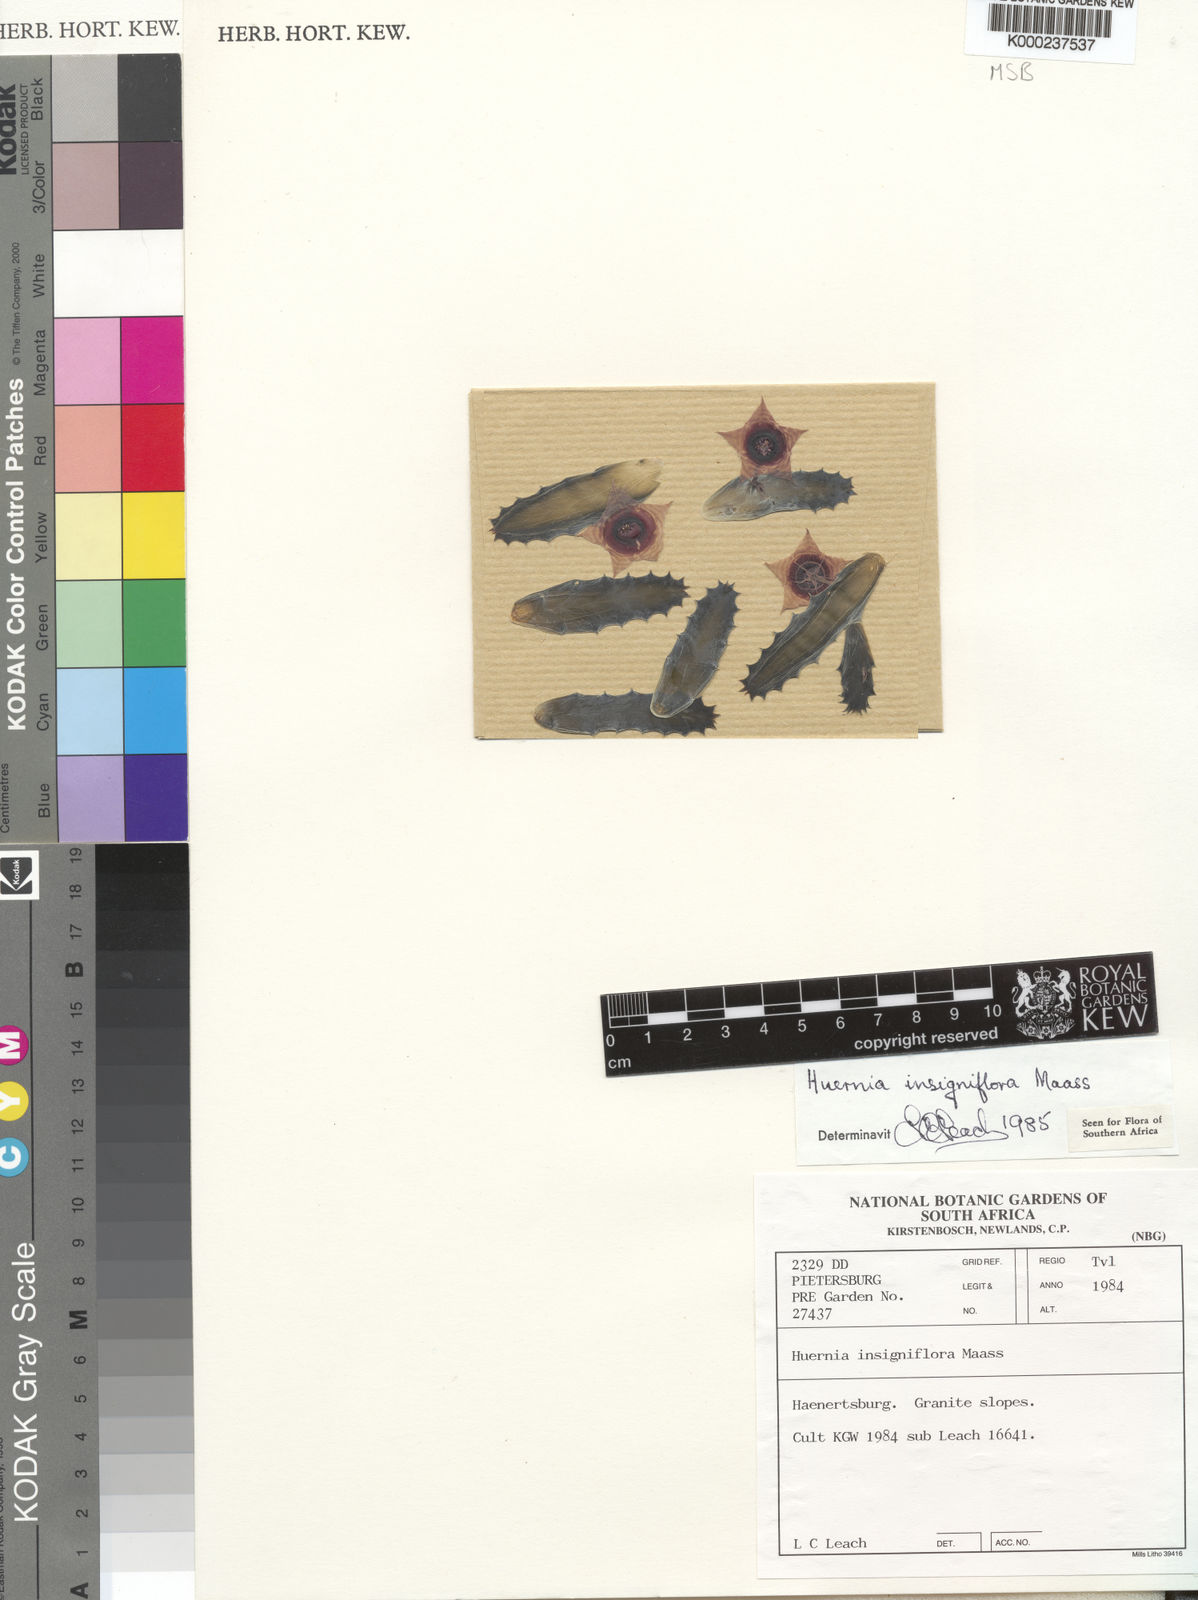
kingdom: Plantae
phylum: Tracheophyta
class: Magnoliopsida
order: Gentianales
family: Apocynaceae
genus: Ceropegia
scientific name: Ceropegia zebrina
